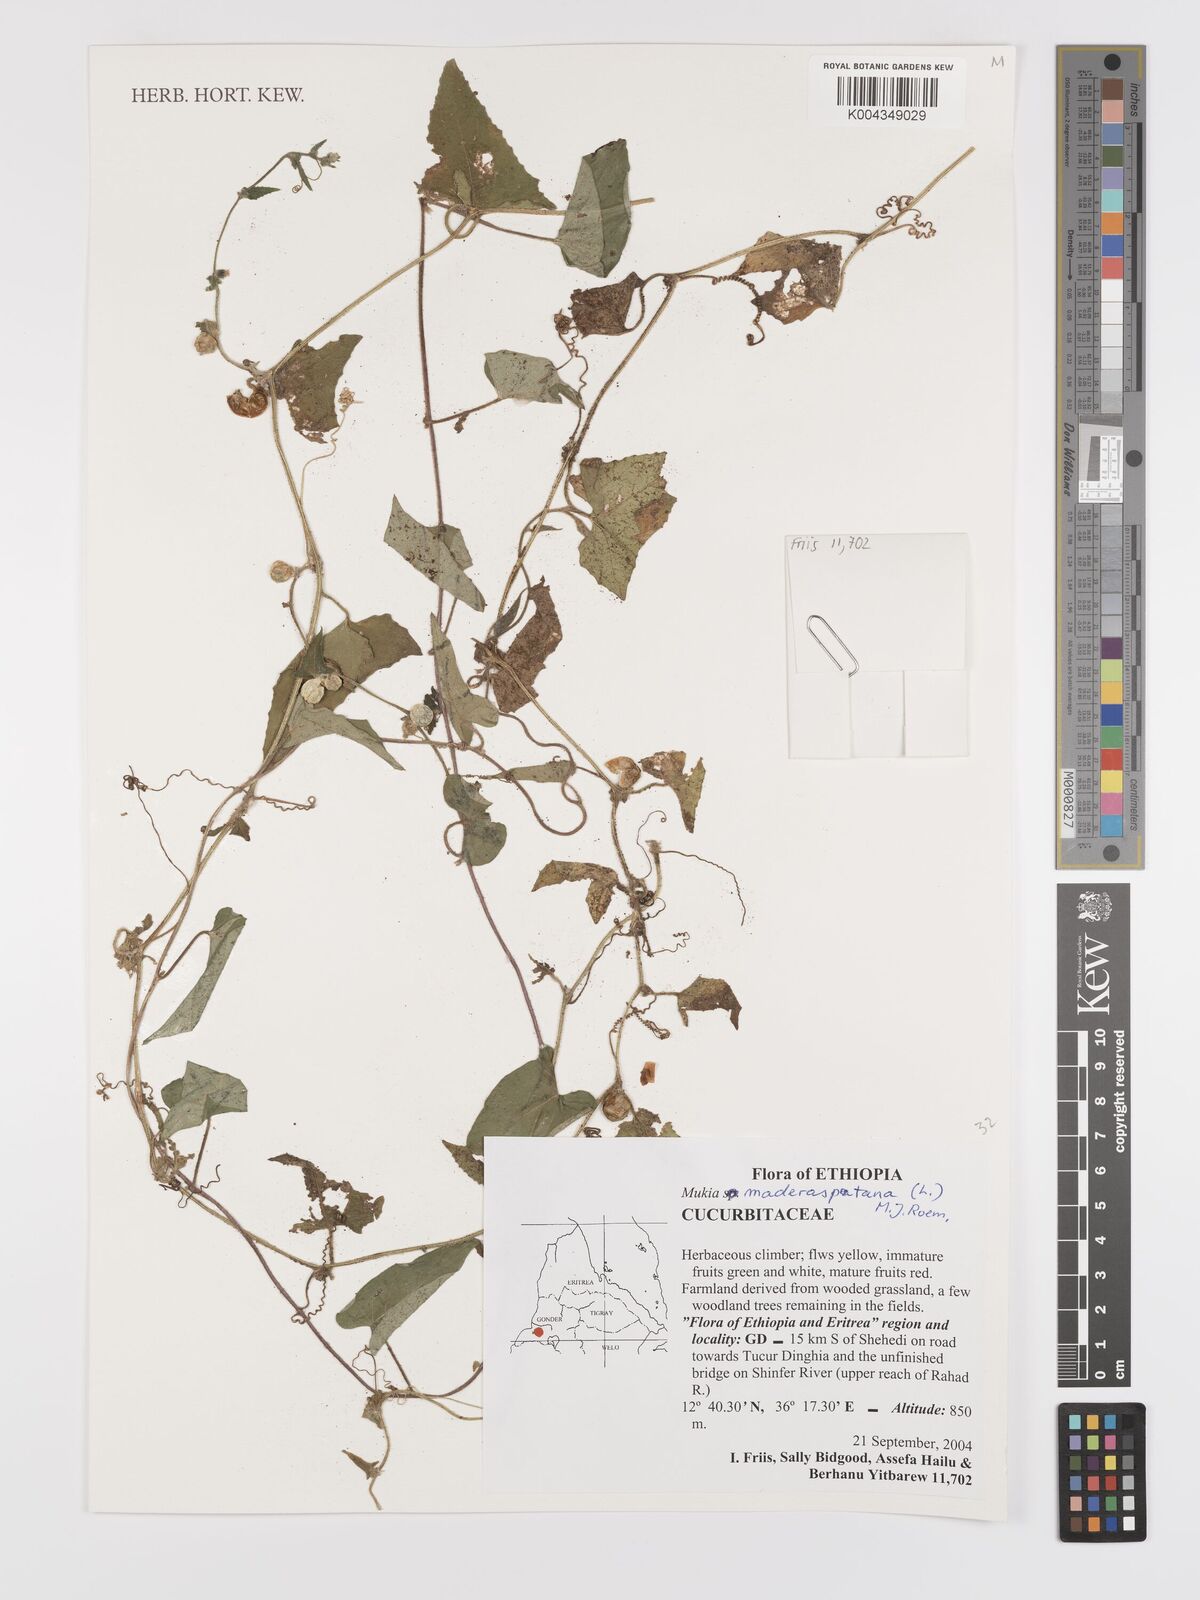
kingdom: Plantae
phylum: Tracheophyta
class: Magnoliopsida
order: Cucurbitales
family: Cucurbitaceae
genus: Cucumis
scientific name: Cucumis maderaspatanus
